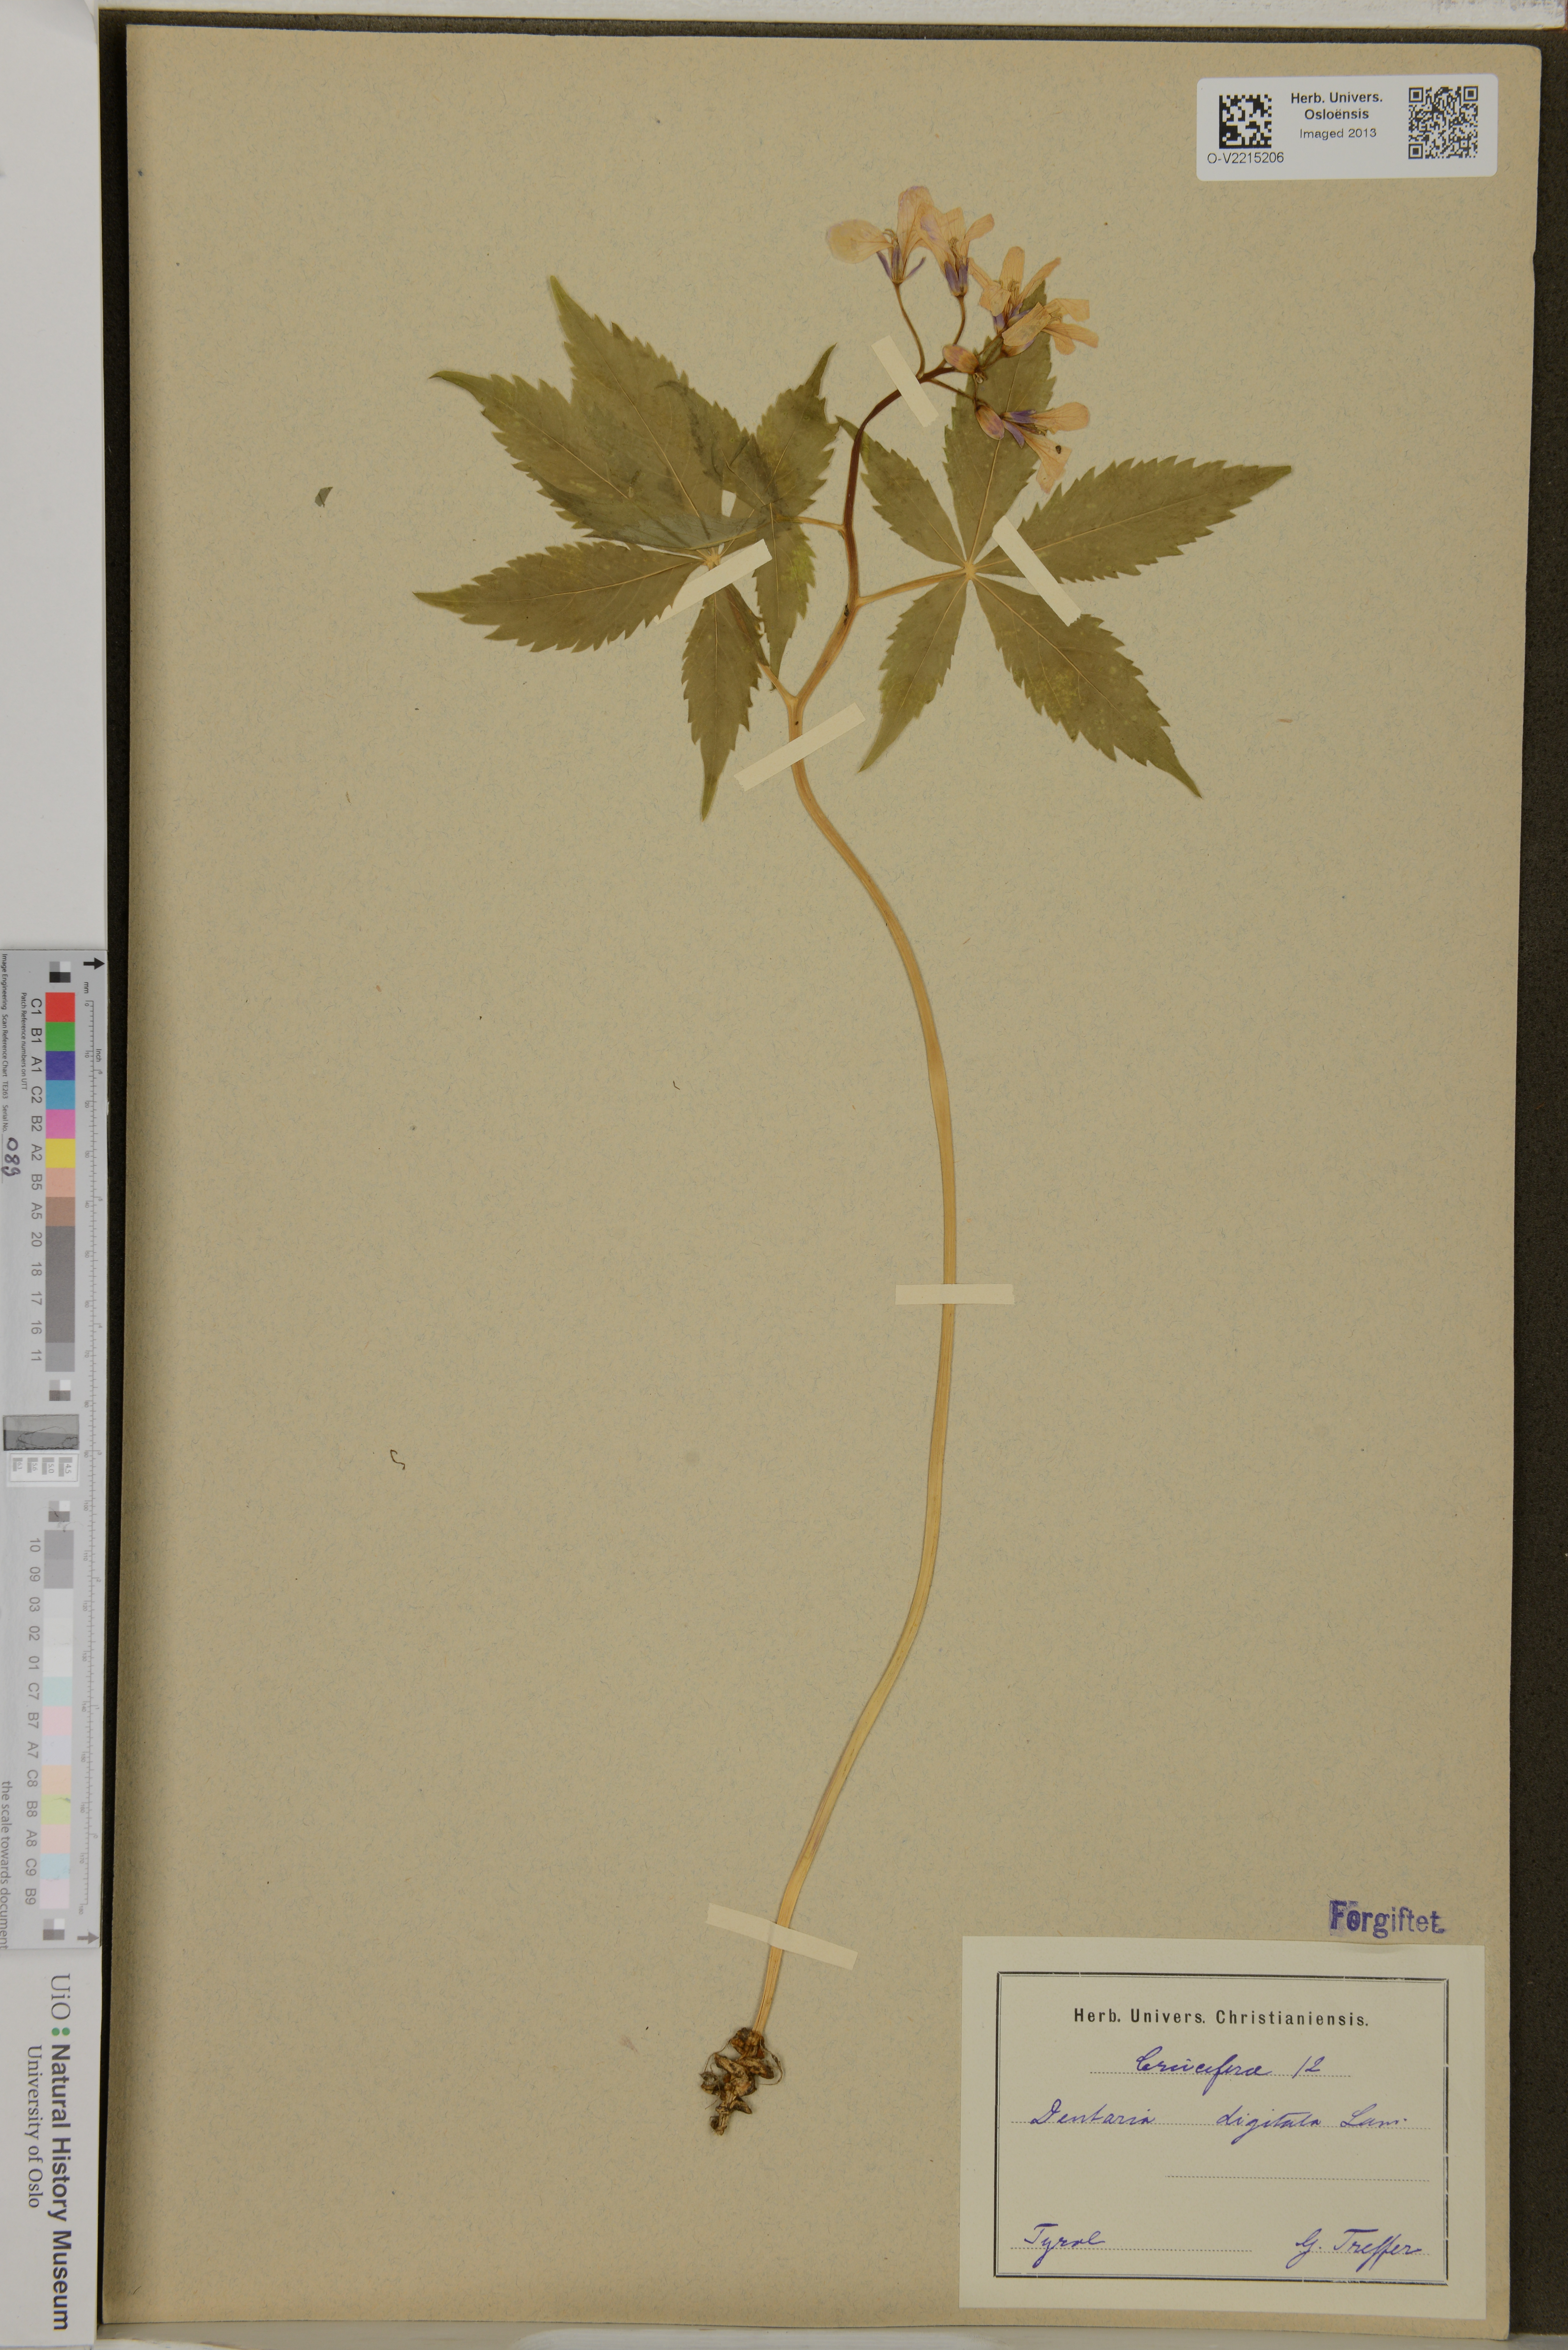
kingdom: Plantae
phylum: Tracheophyta
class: Magnoliopsida
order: Brassicales
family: Brassicaceae
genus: Cardamine
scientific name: Cardamine pentaphyllos
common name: Five-leaflet bitter-cress
